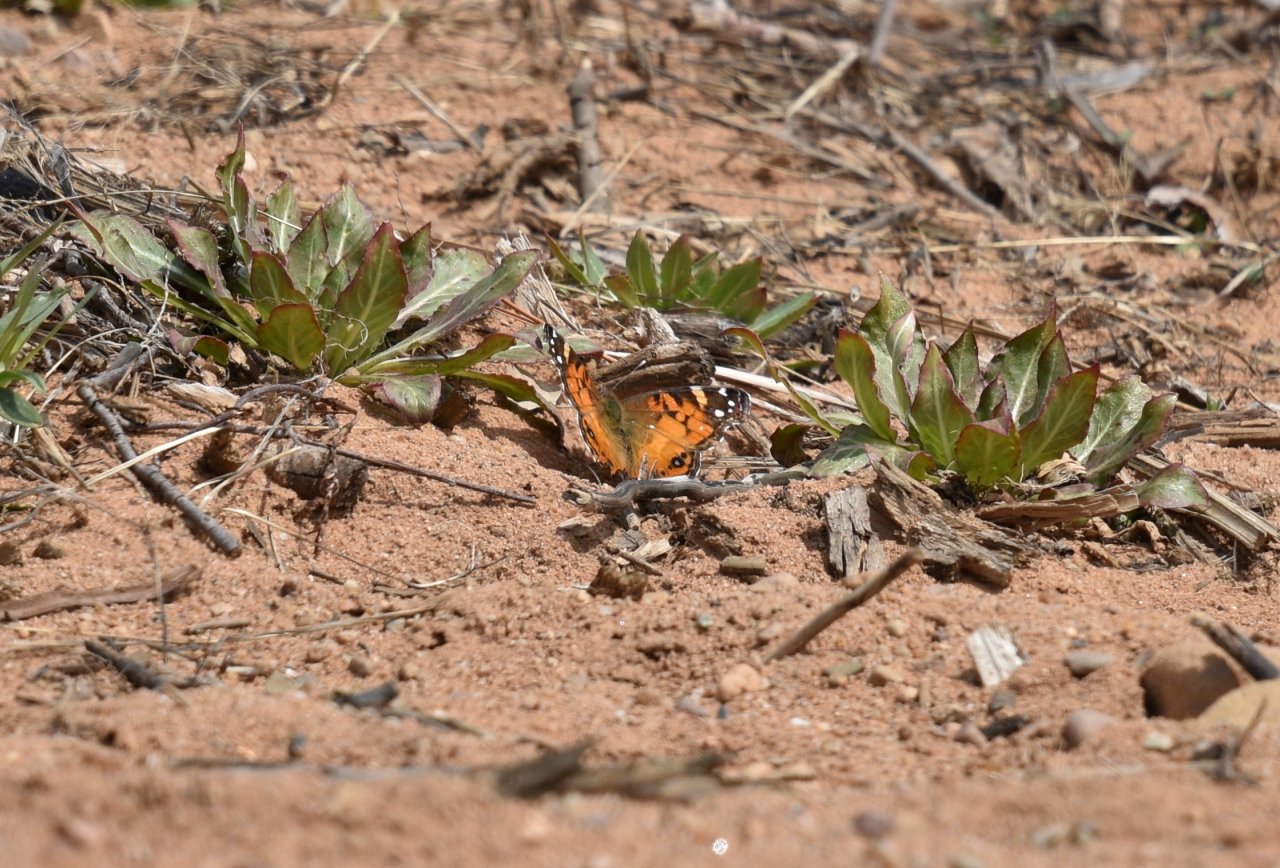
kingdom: Animalia
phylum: Arthropoda
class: Insecta
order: Lepidoptera
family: Nymphalidae
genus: Vanessa
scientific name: Vanessa virginiensis
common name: American Lady
